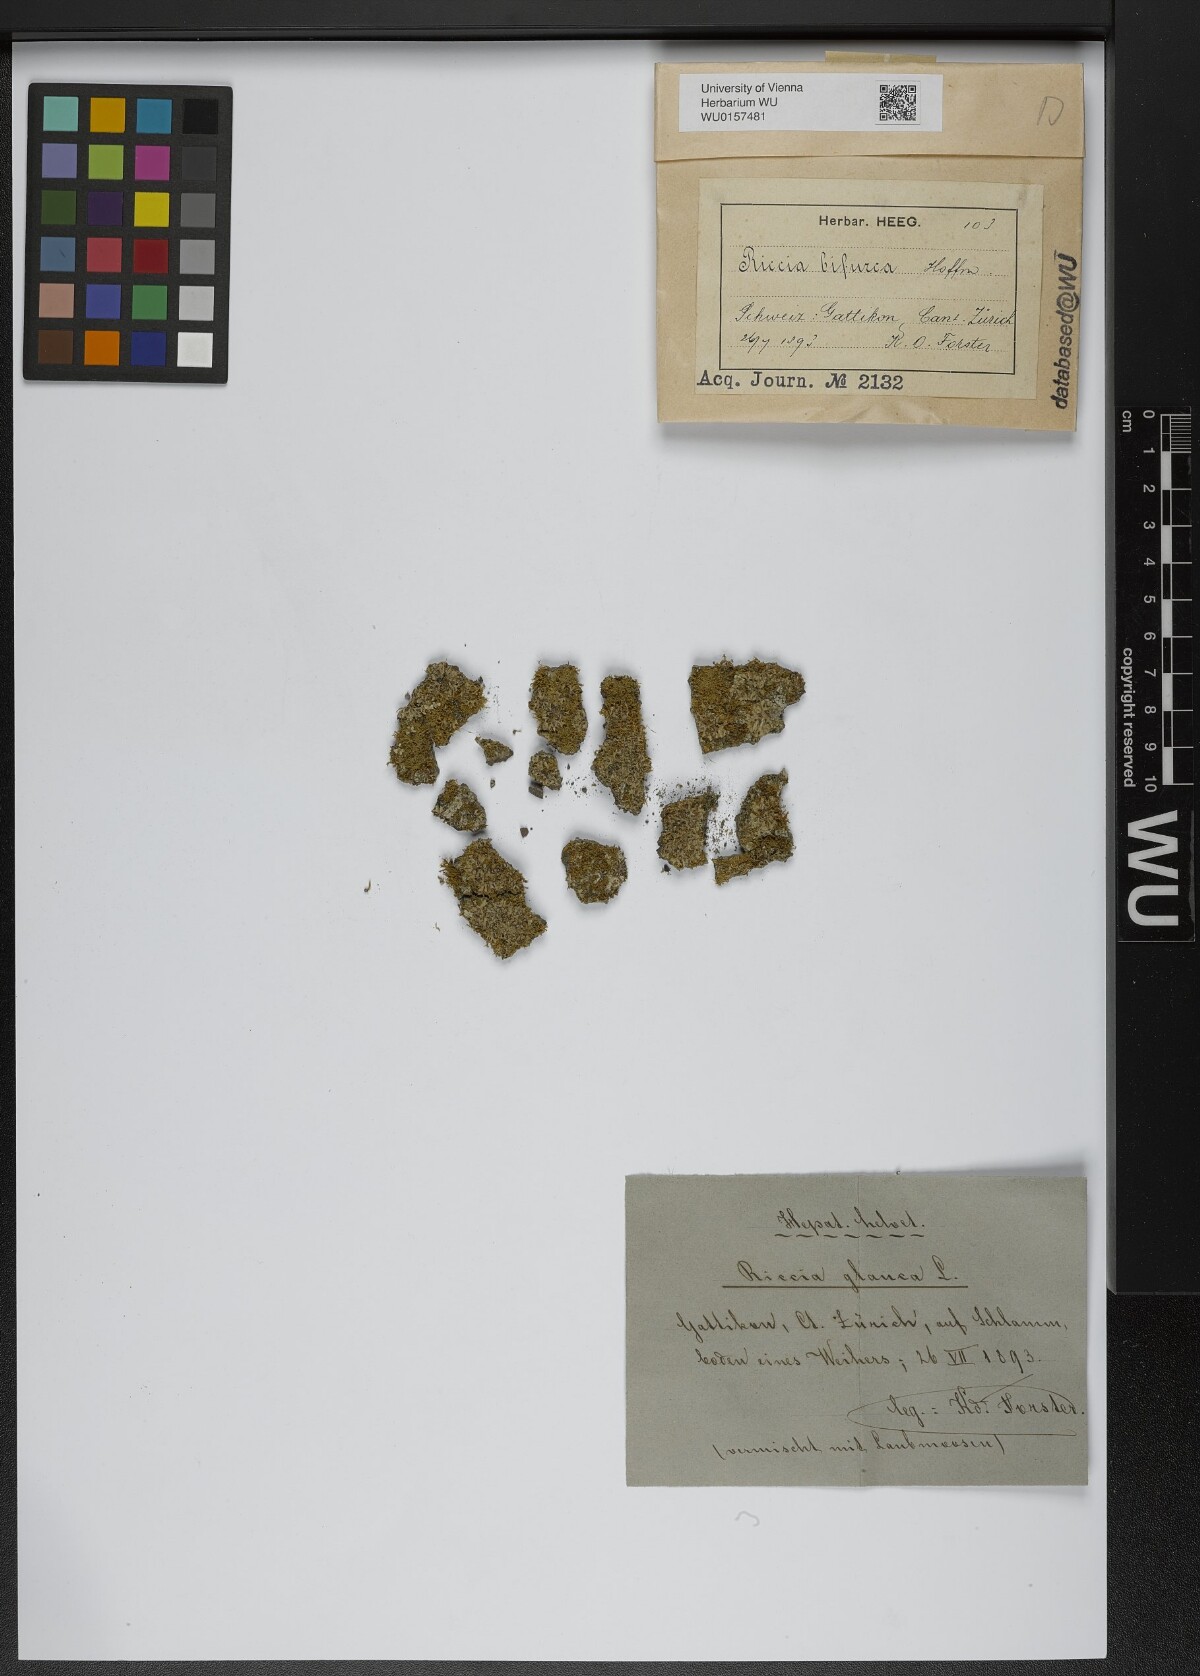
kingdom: Plantae
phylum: Marchantiophyta
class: Marchantiopsida
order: Marchantiales
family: Ricciaceae
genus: Riccia
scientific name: Riccia bifurca
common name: Lizard crystalwort
